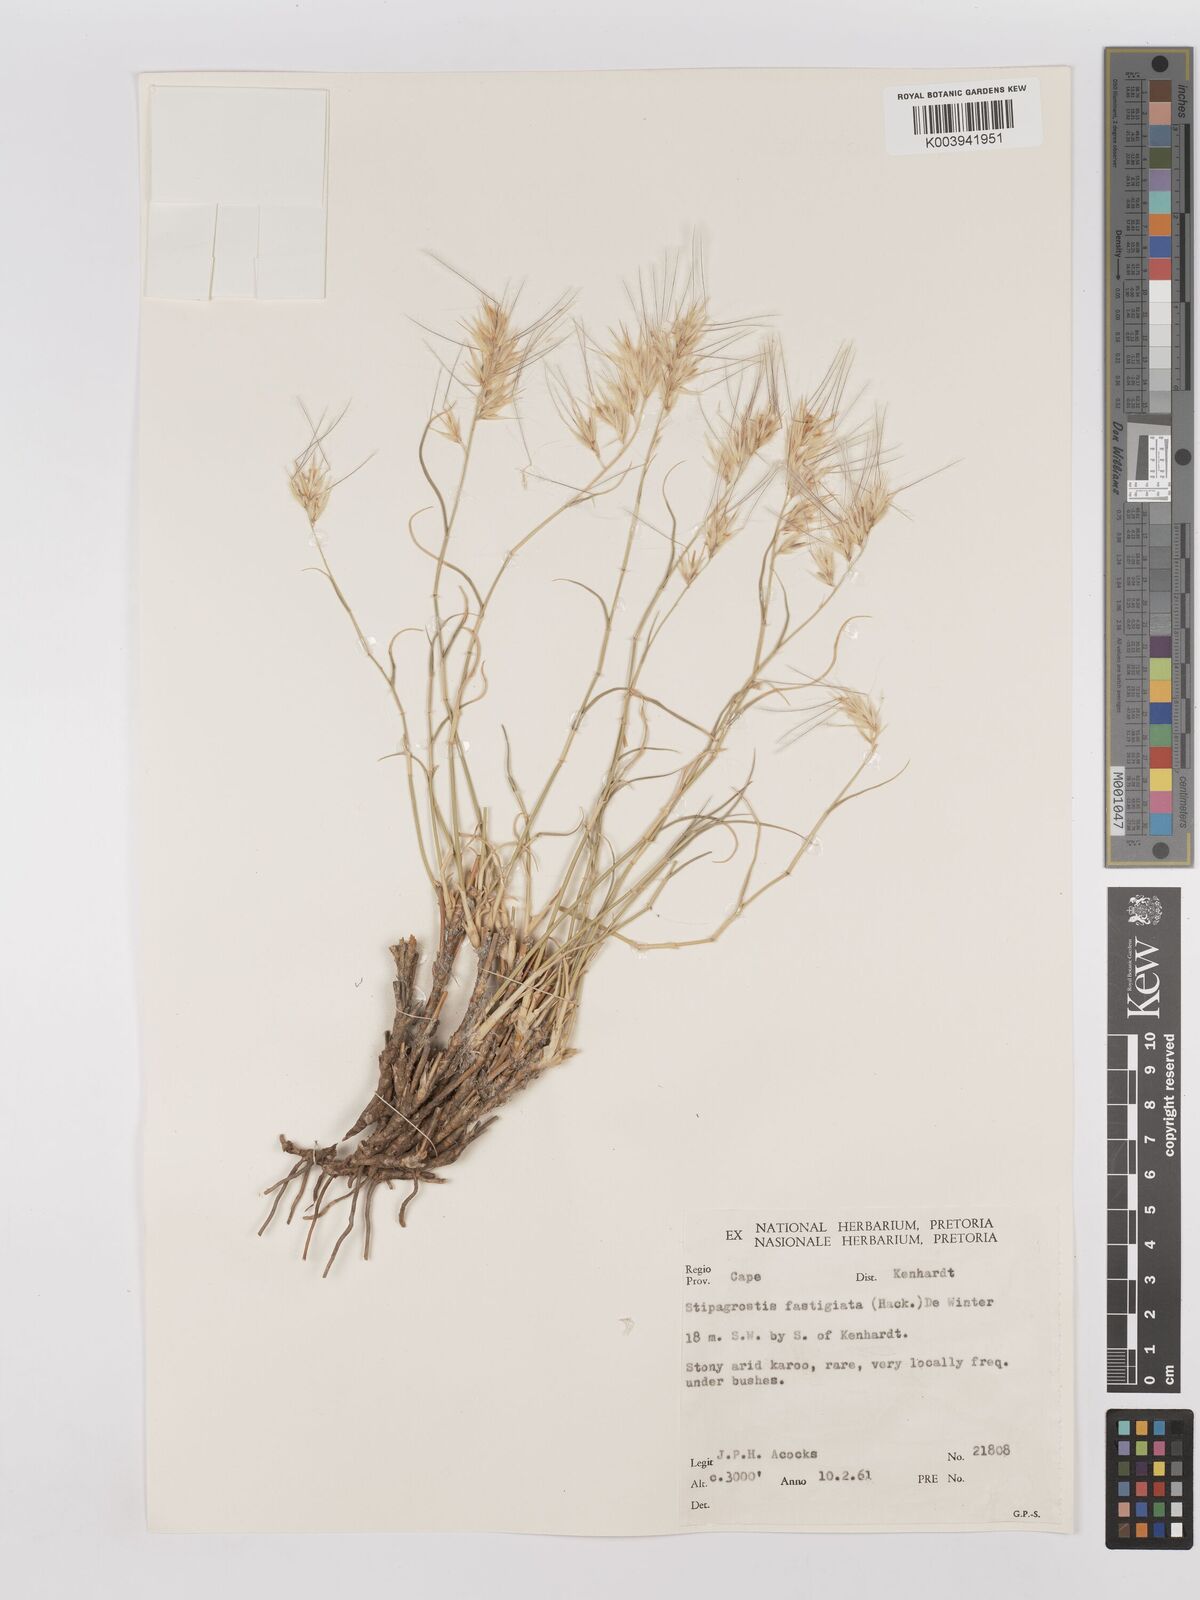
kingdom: Plantae
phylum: Tracheophyta
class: Liliopsida
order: Poales
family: Poaceae
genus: Stipagrostis
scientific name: Stipagrostis fastigiata
